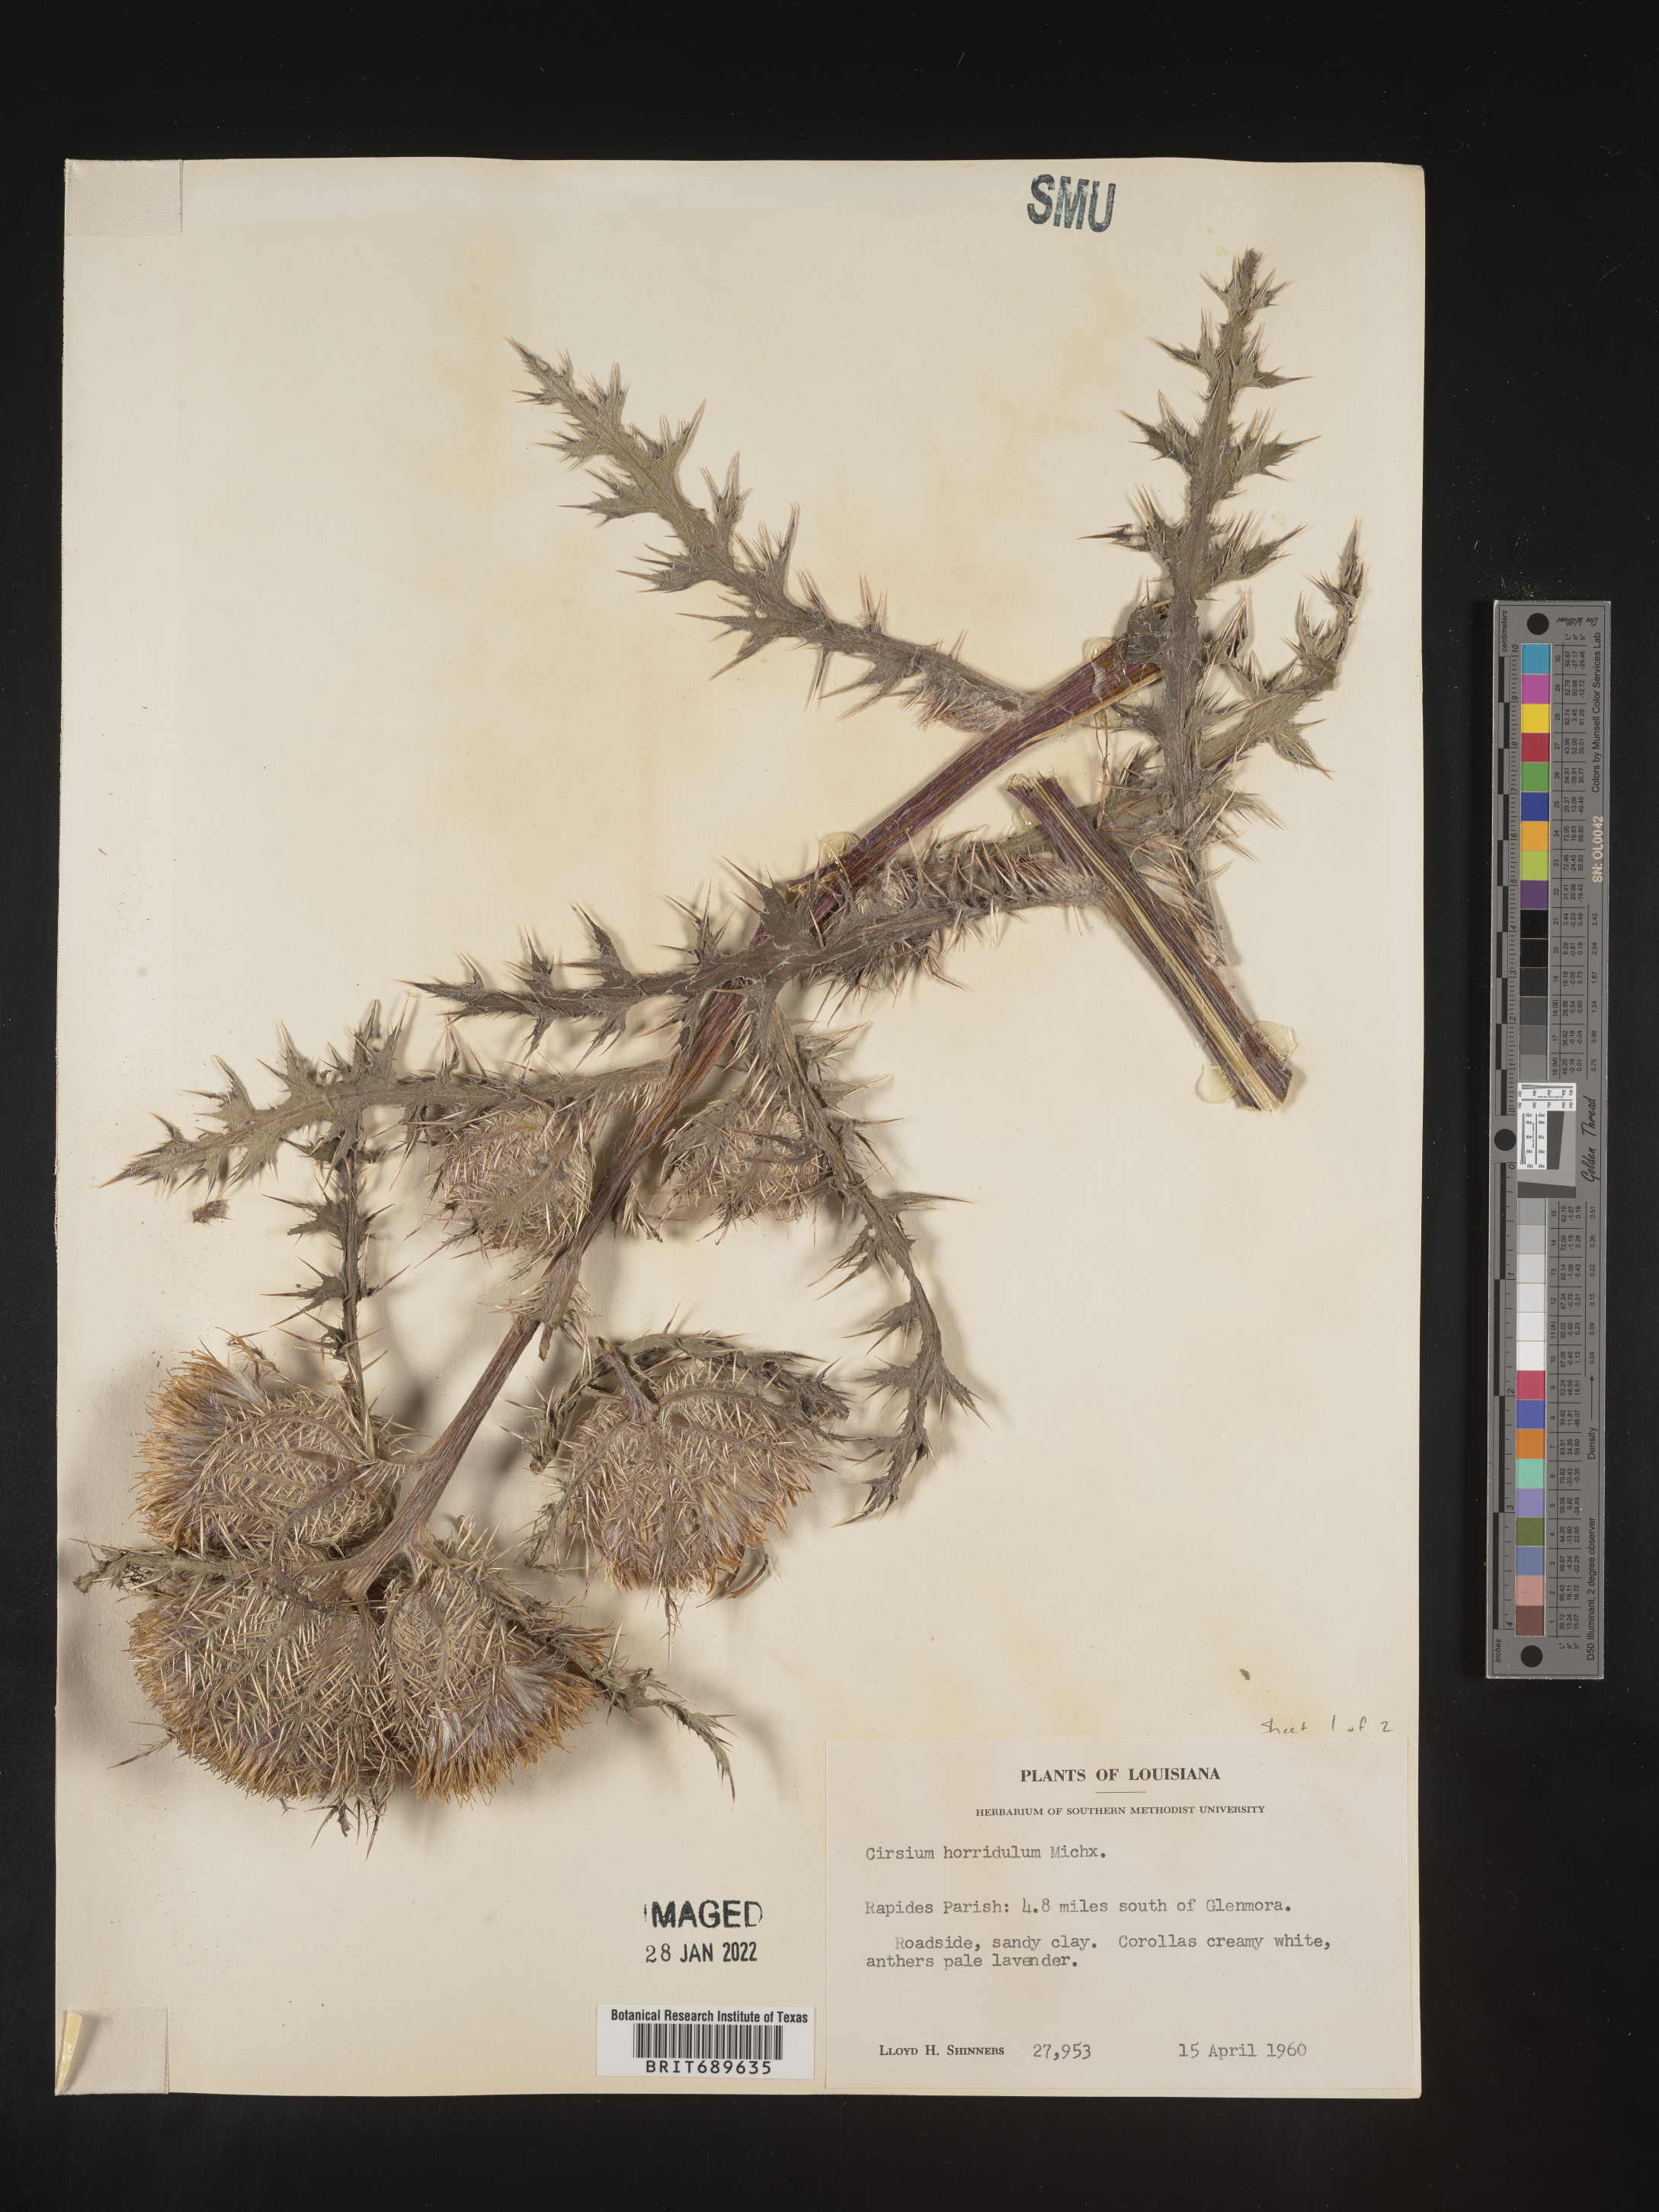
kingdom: Plantae
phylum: Tracheophyta
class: Magnoliopsida
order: Asterales
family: Asteraceae
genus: Cirsium
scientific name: Cirsium horridulum
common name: Bristly thistle
